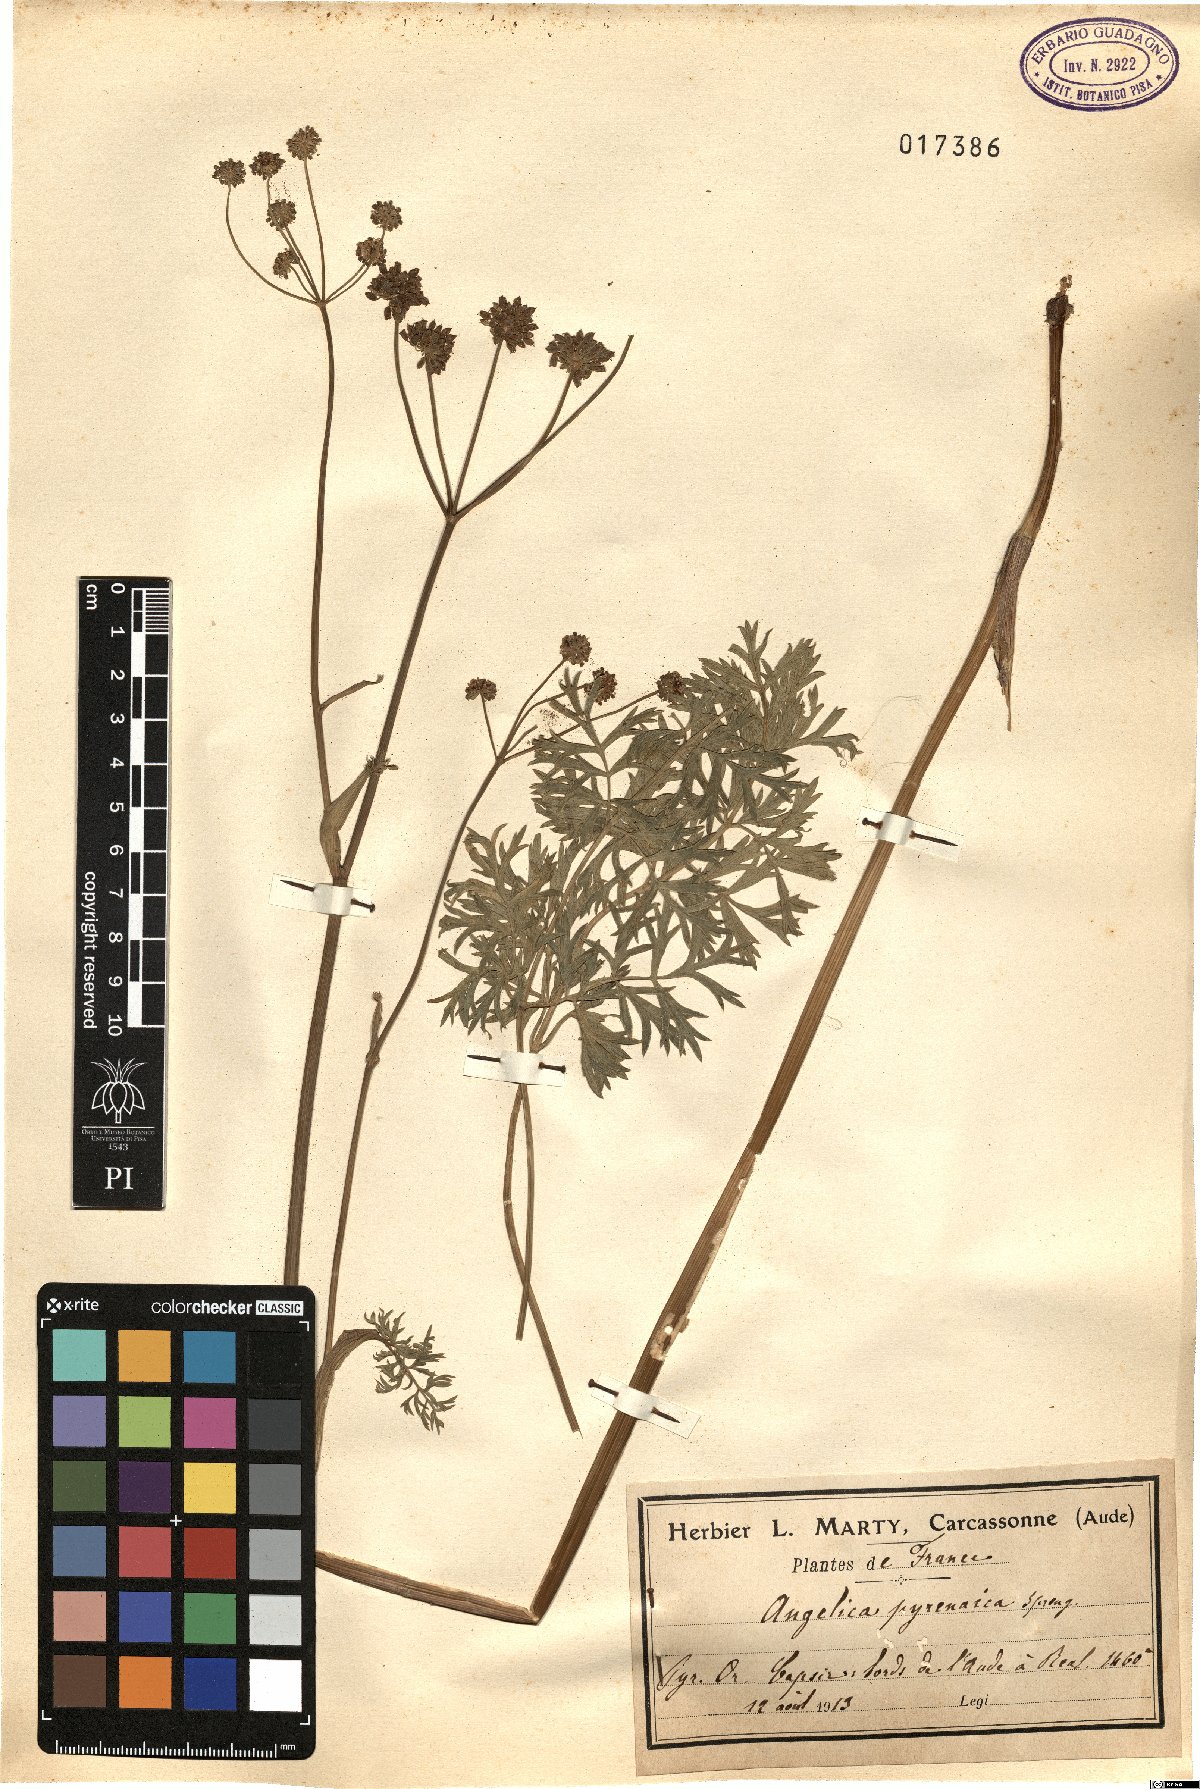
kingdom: Plantae
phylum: Tracheophyta
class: Magnoliopsida
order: Apiales
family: Apiaceae
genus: Epikeros
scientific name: Epikeros pyrenaeus
